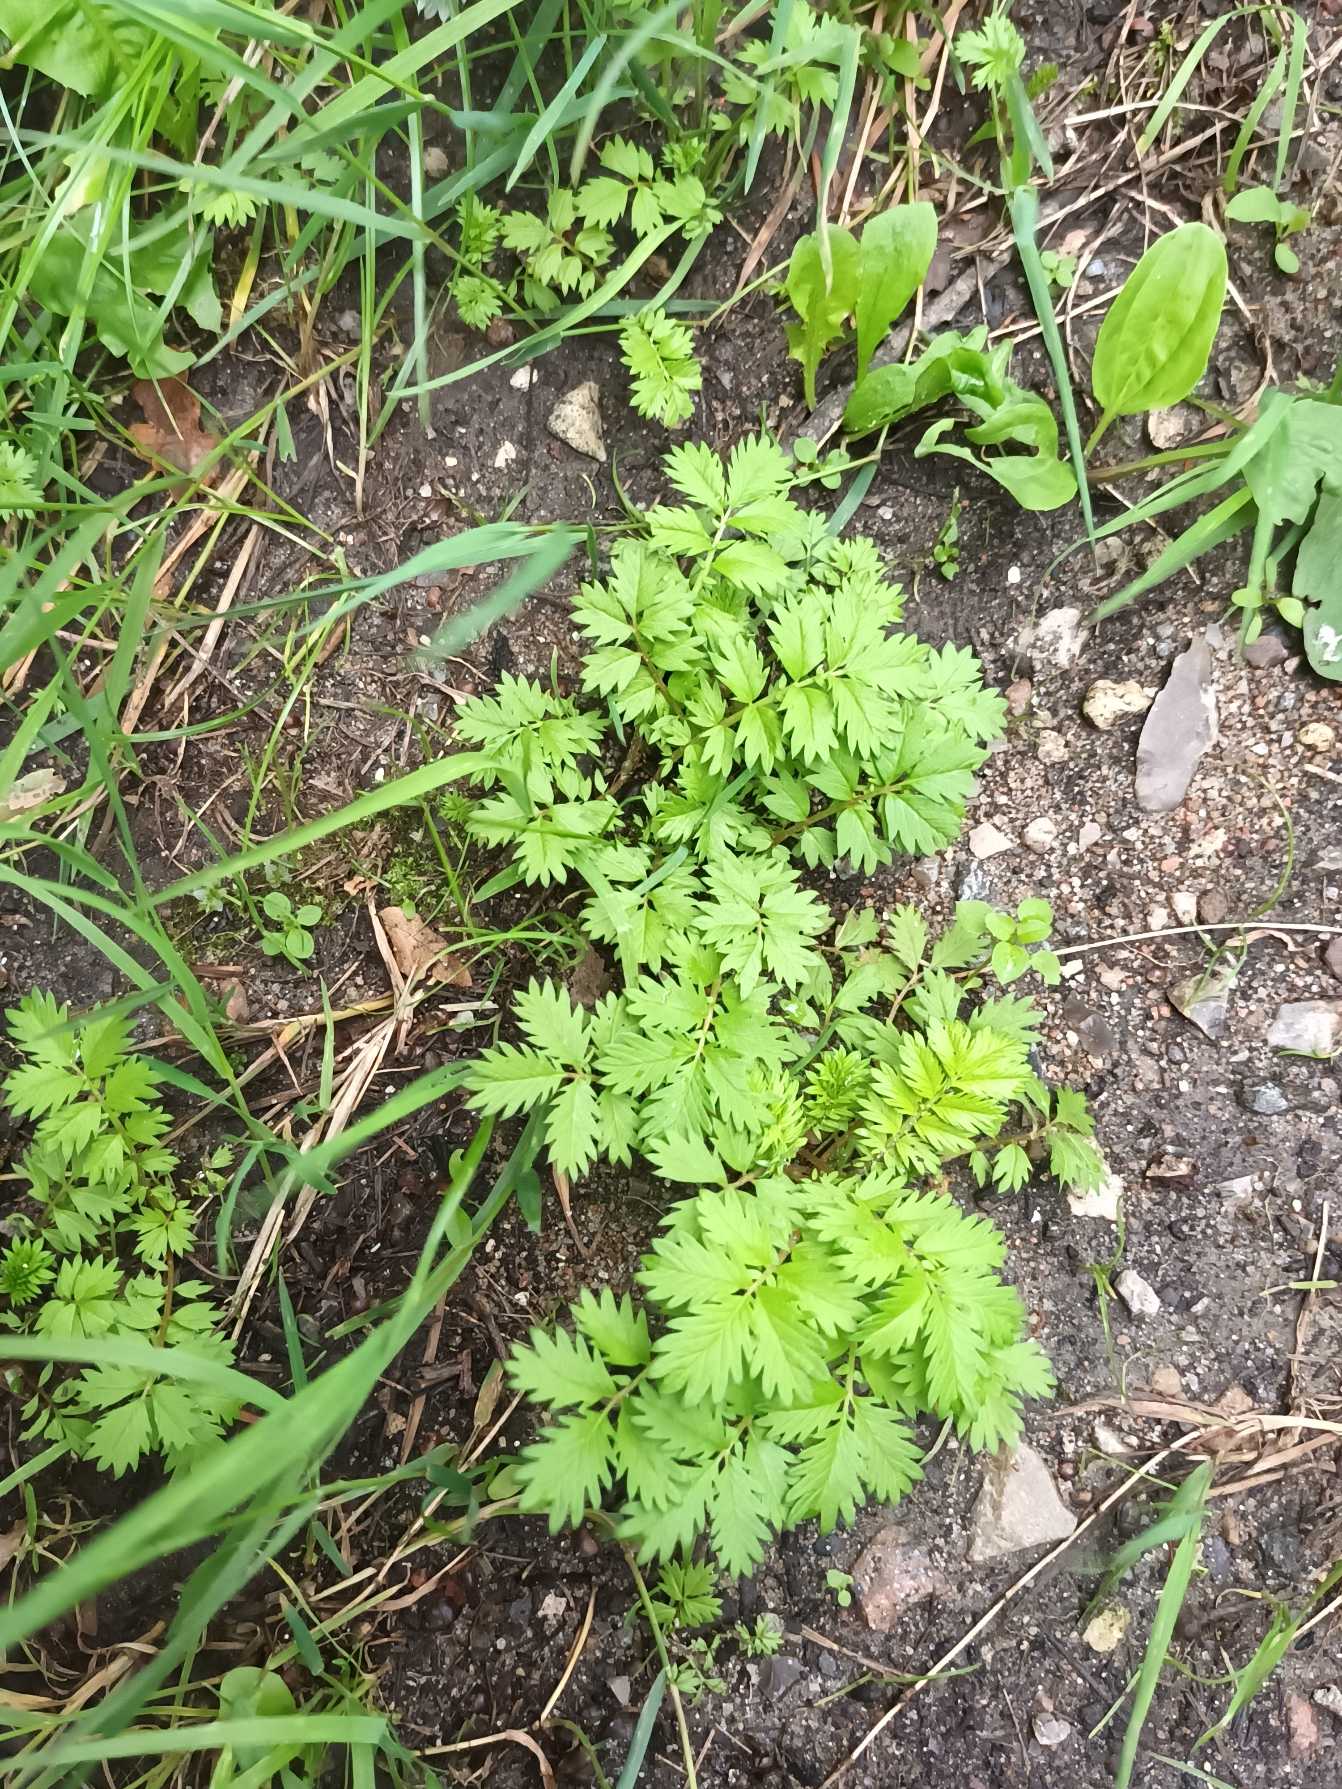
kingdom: Plantae
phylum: Tracheophyta
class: Magnoliopsida
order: Rosales
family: Rosaceae
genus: Argentina
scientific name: Argentina anserina
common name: Gåsepotentil
